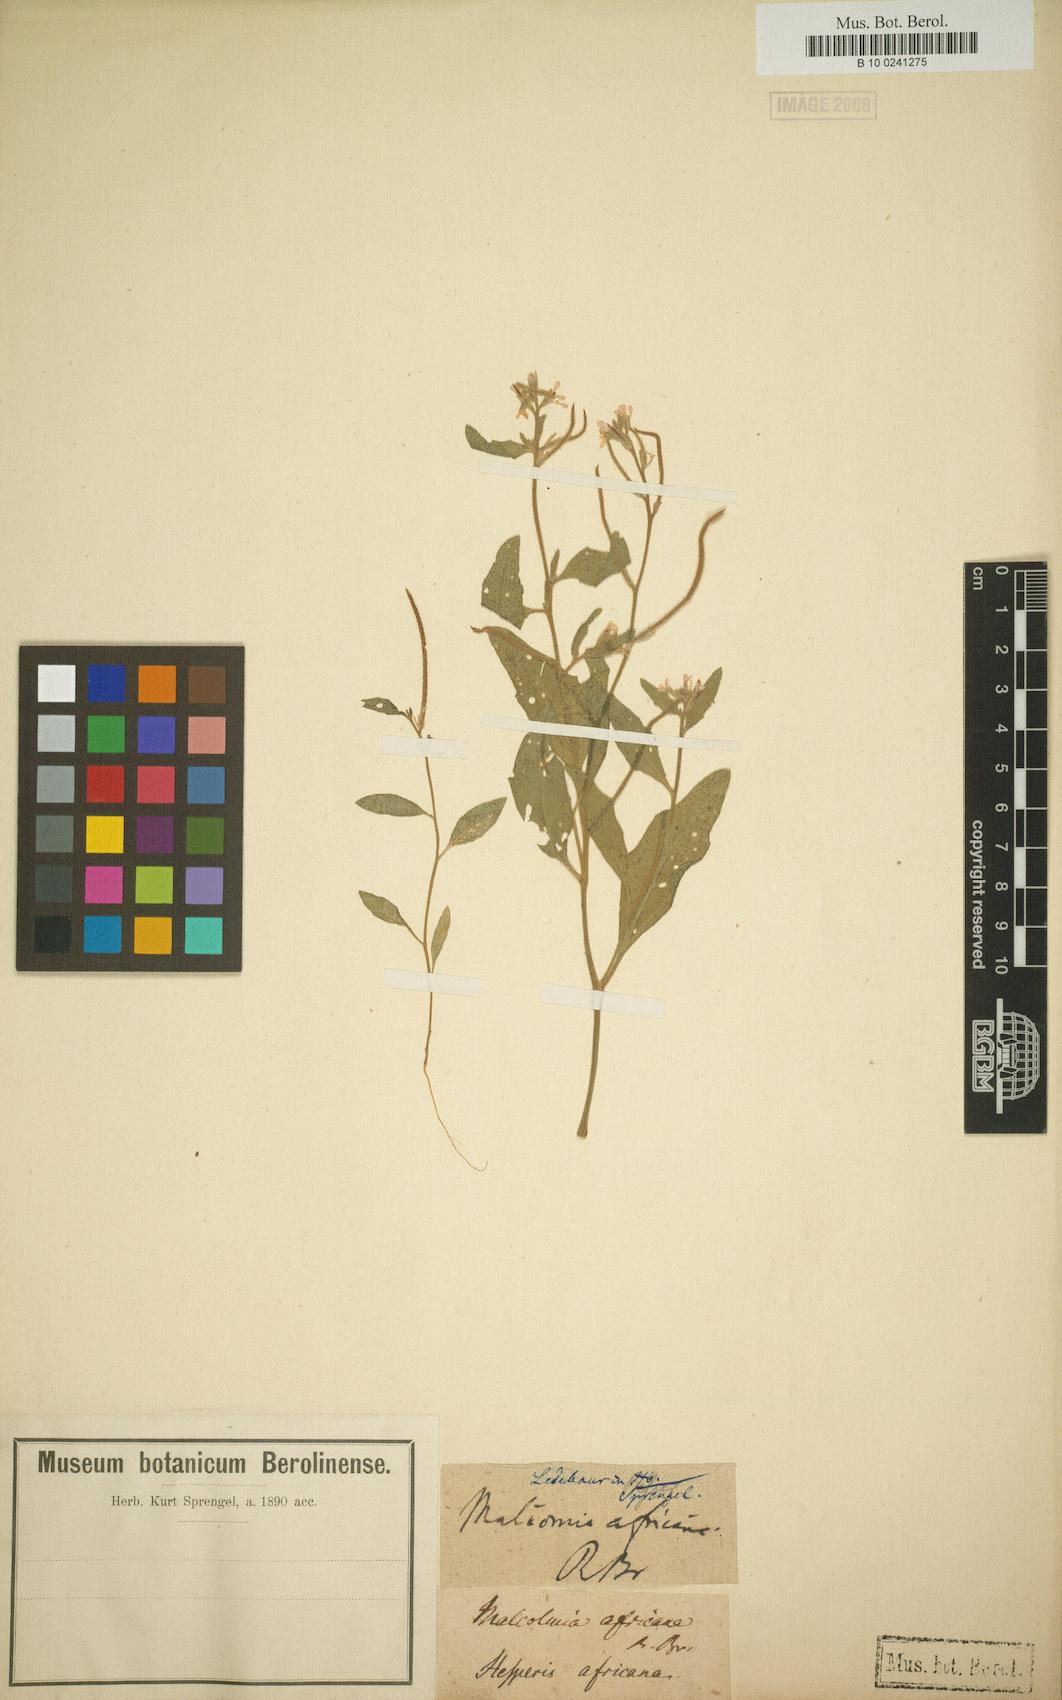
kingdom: Plantae
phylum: Tracheophyta
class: Magnoliopsida
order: Brassicales
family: Brassicaceae
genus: Malcolmia
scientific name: Malcolmia africana
